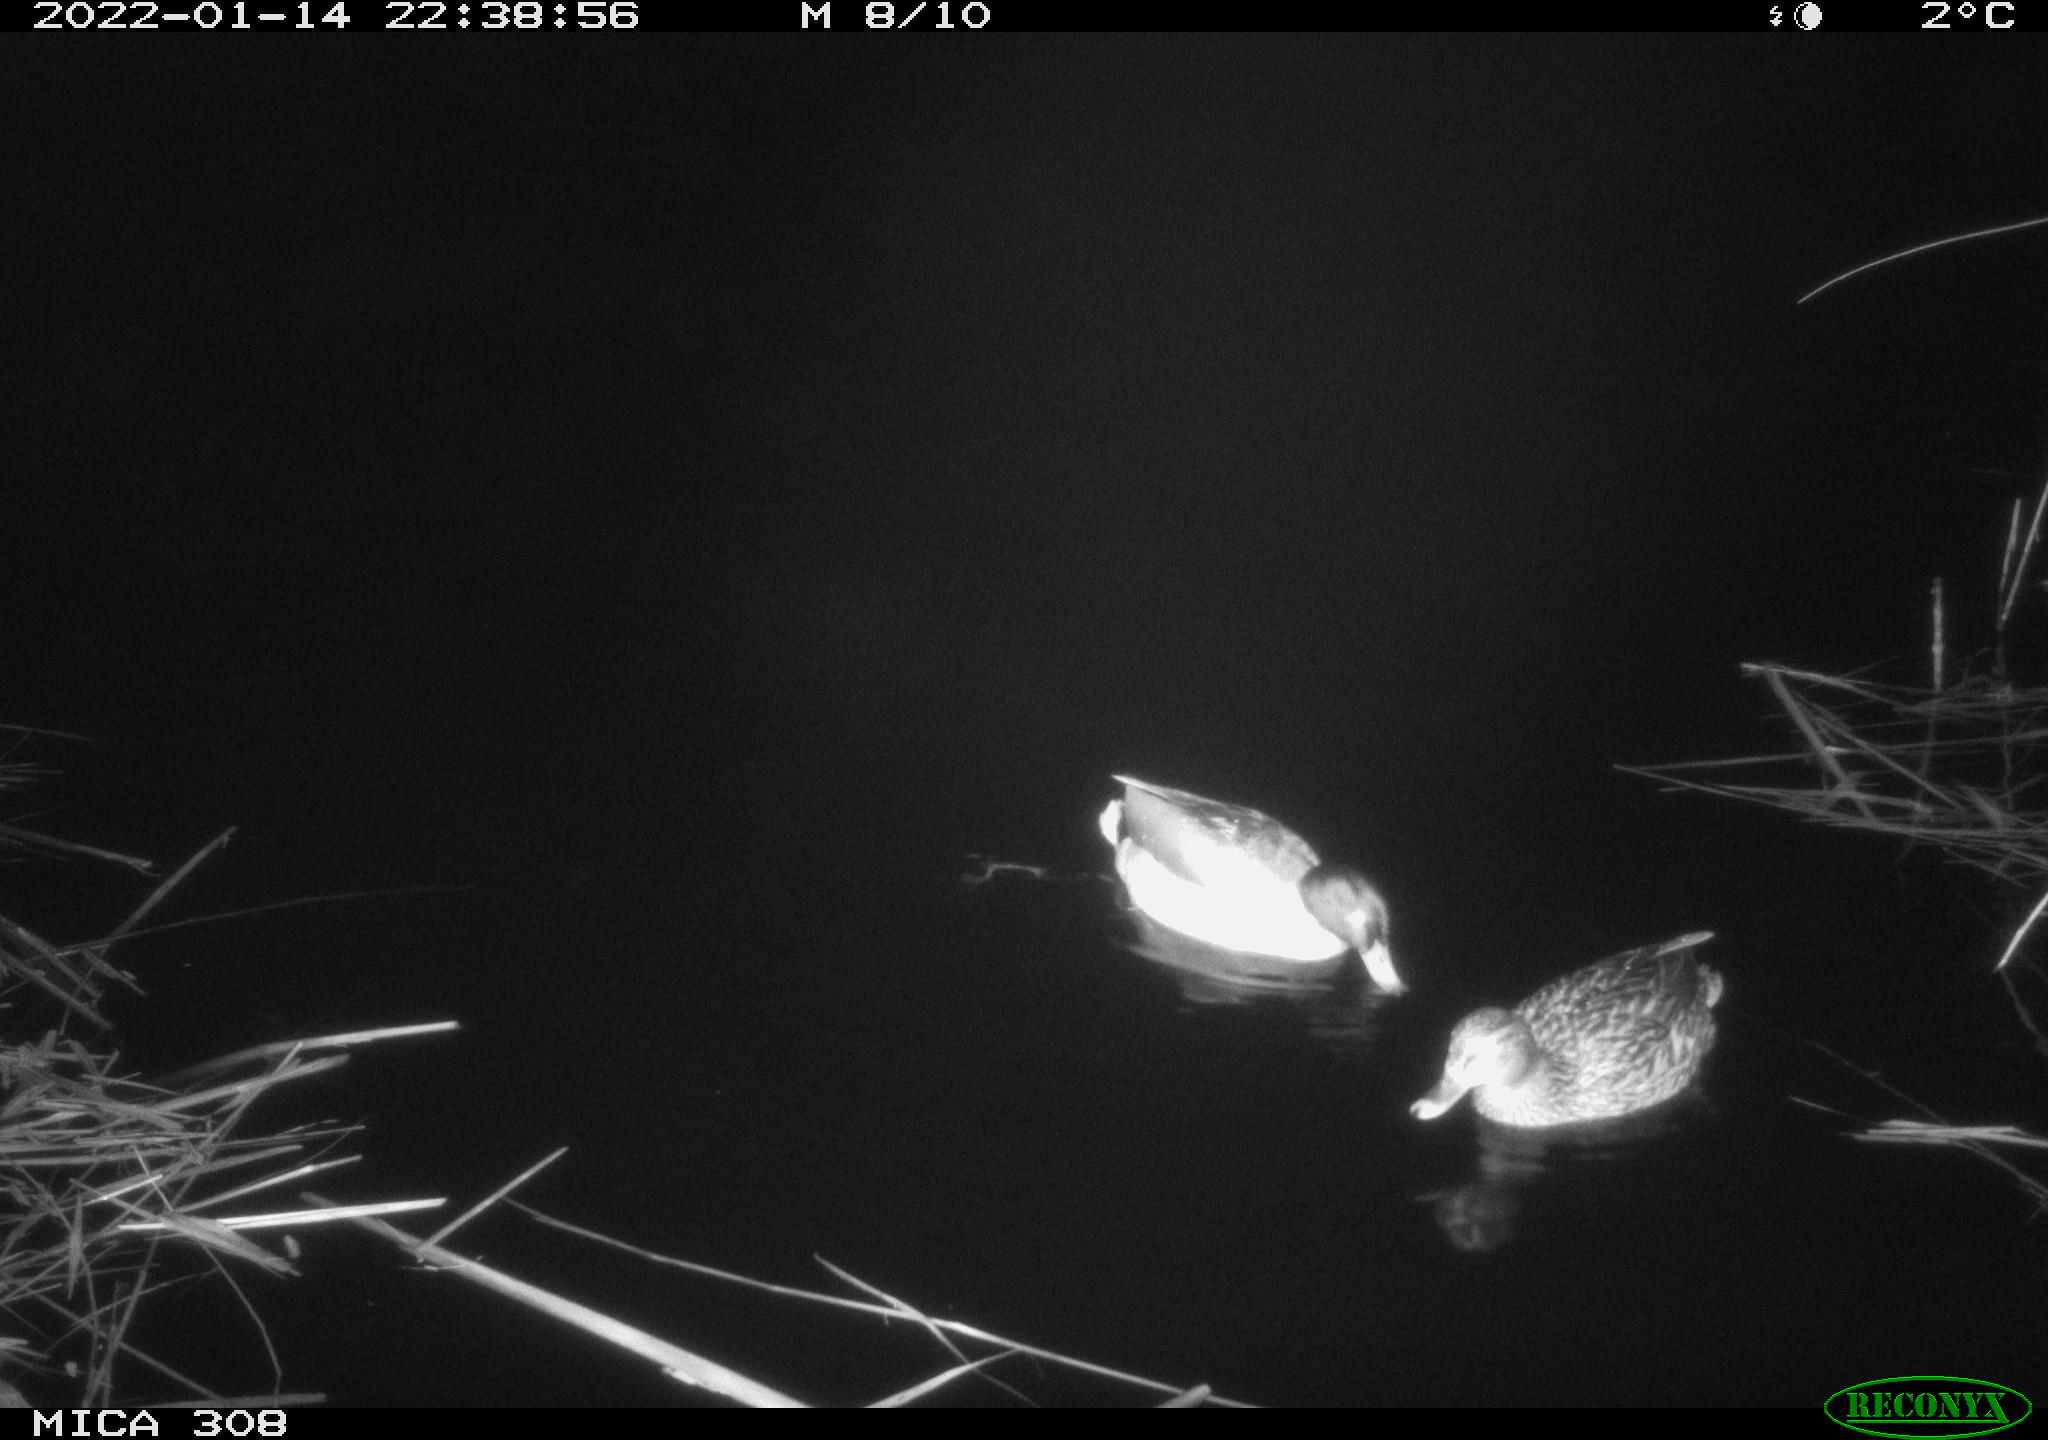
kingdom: Animalia
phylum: Chordata
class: Aves
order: Anseriformes
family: Anatidae
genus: Anas
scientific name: Anas
